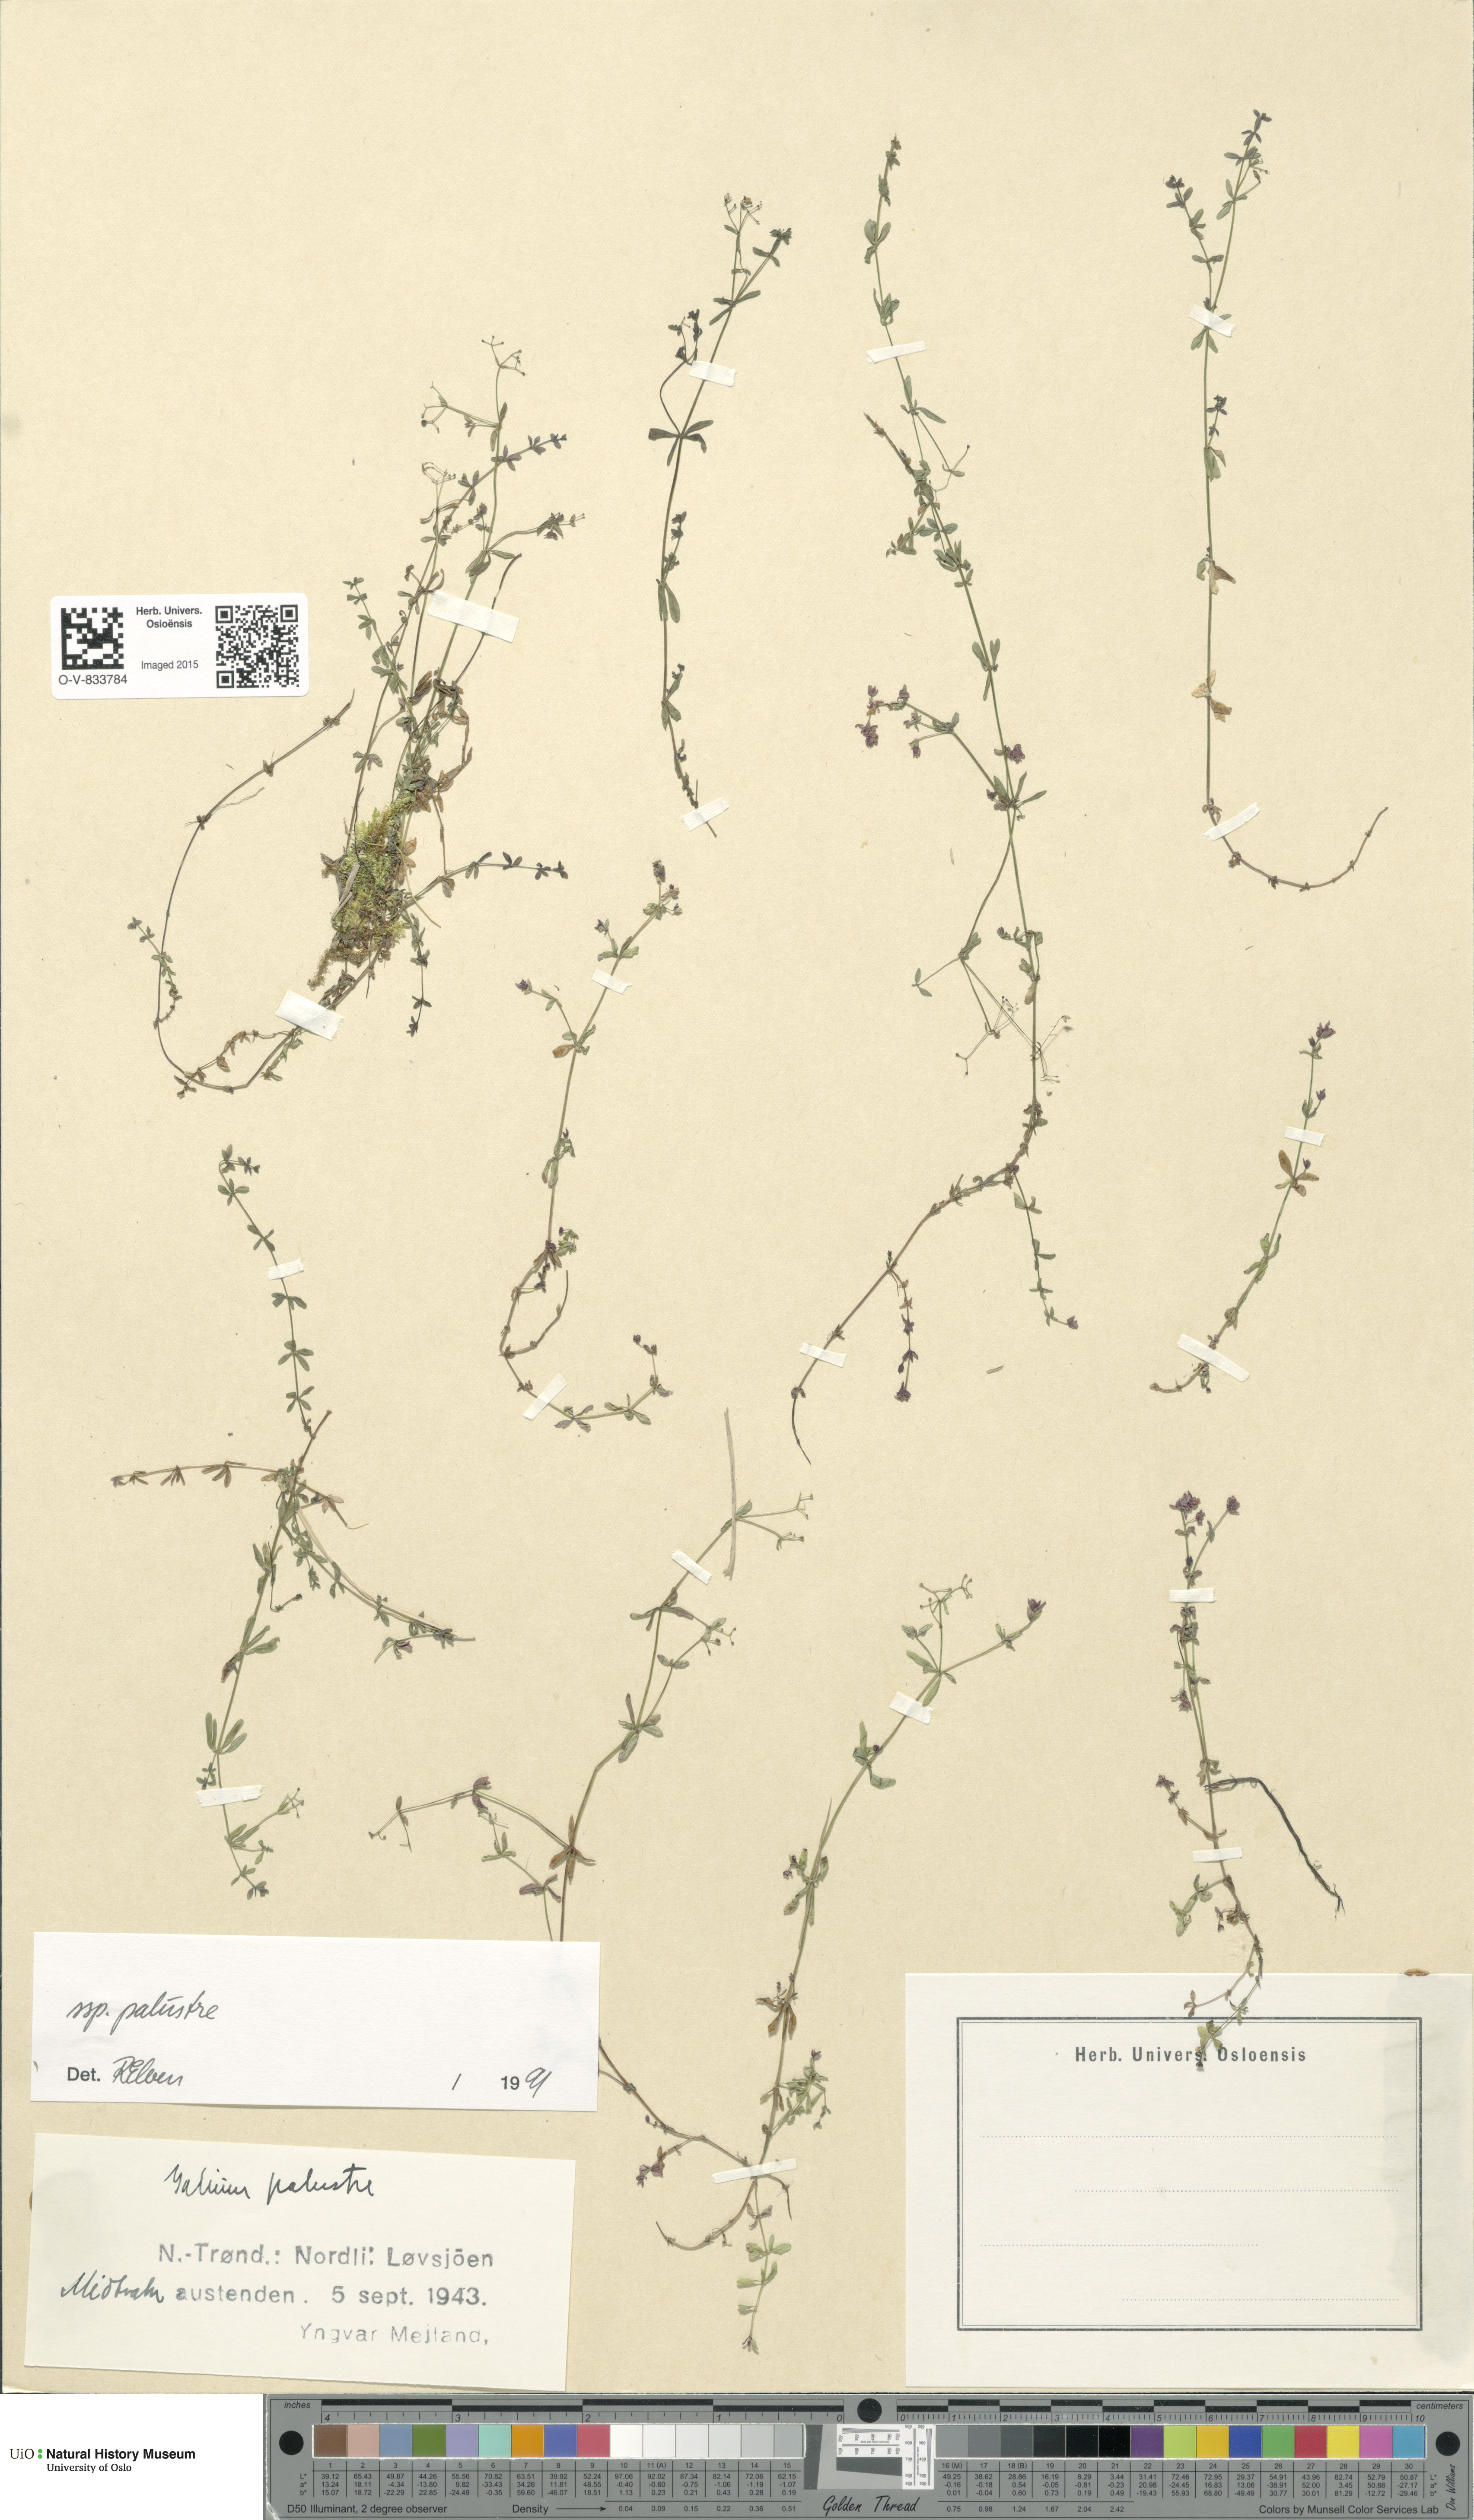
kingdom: Plantae
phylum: Tracheophyta
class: Magnoliopsida
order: Gentianales
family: Rubiaceae
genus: Galium
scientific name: Galium palustre
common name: Common marsh-bedstraw
